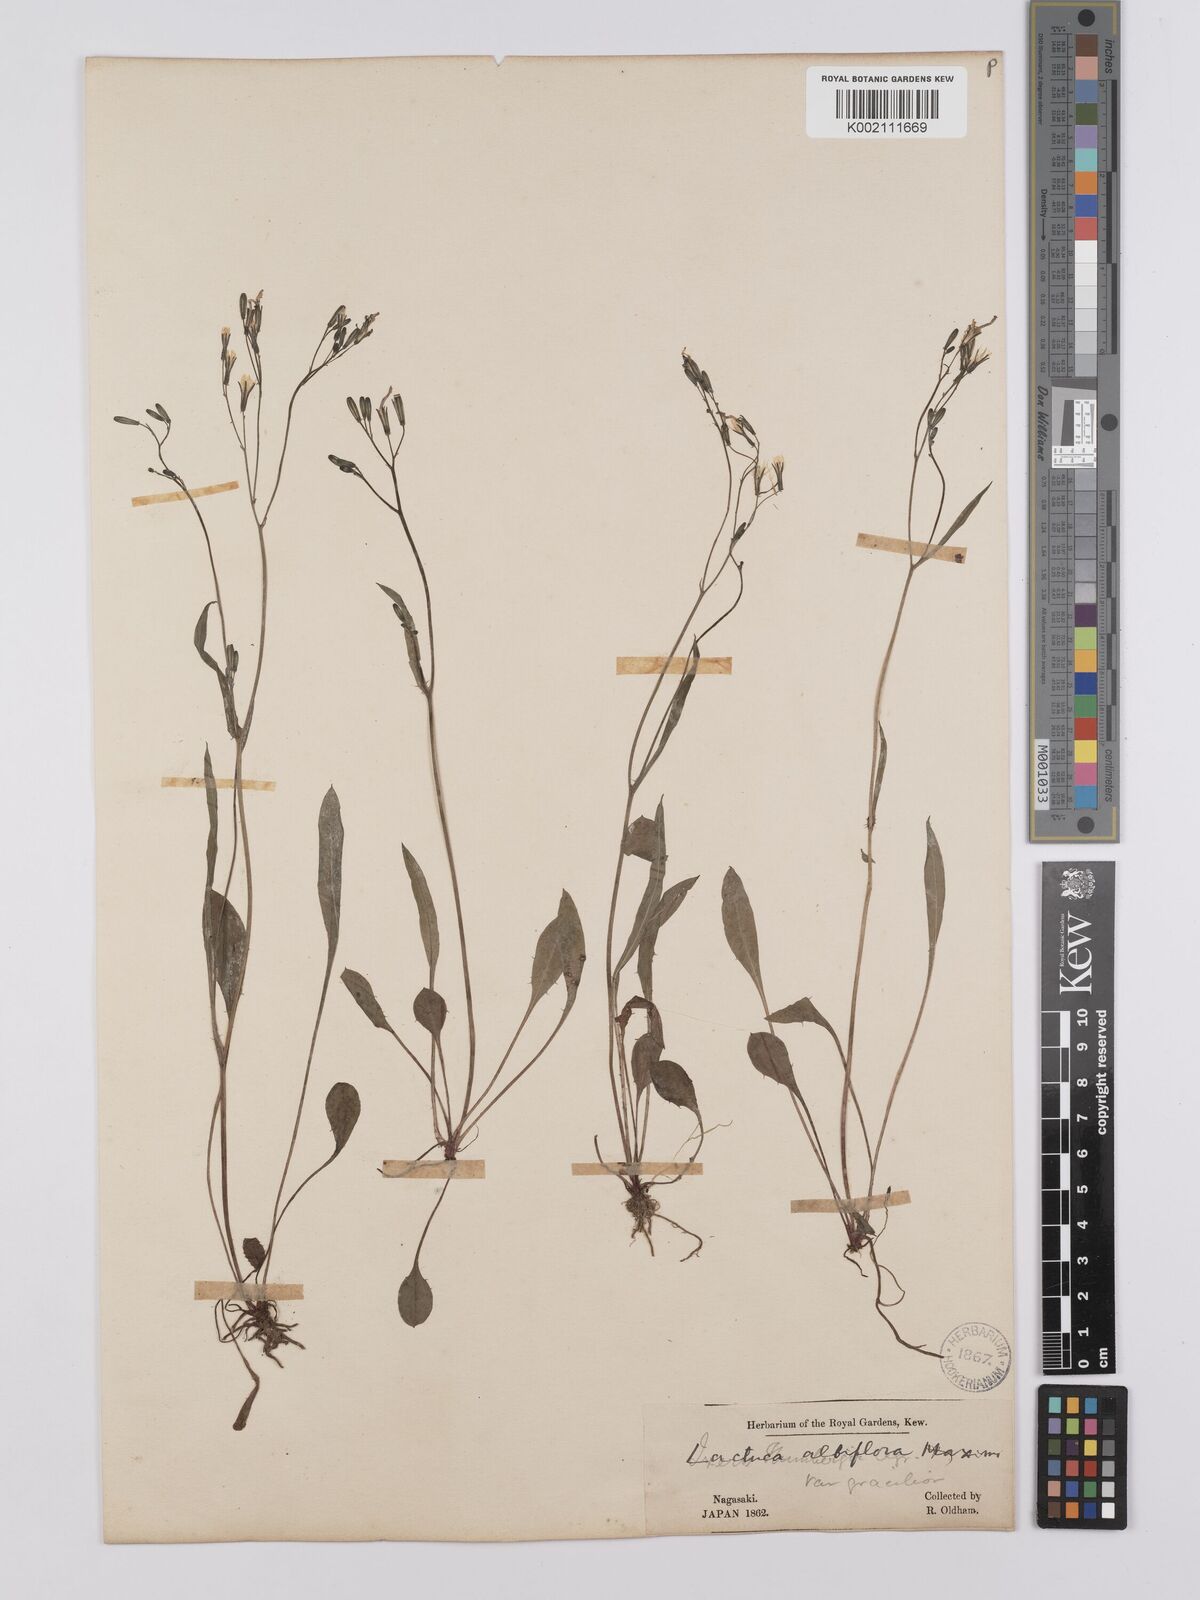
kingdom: Plantae
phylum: Tracheophyta
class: Magnoliopsida
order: Asterales
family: Asteraceae
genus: Ixeridium
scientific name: Ixeridium dentatum
